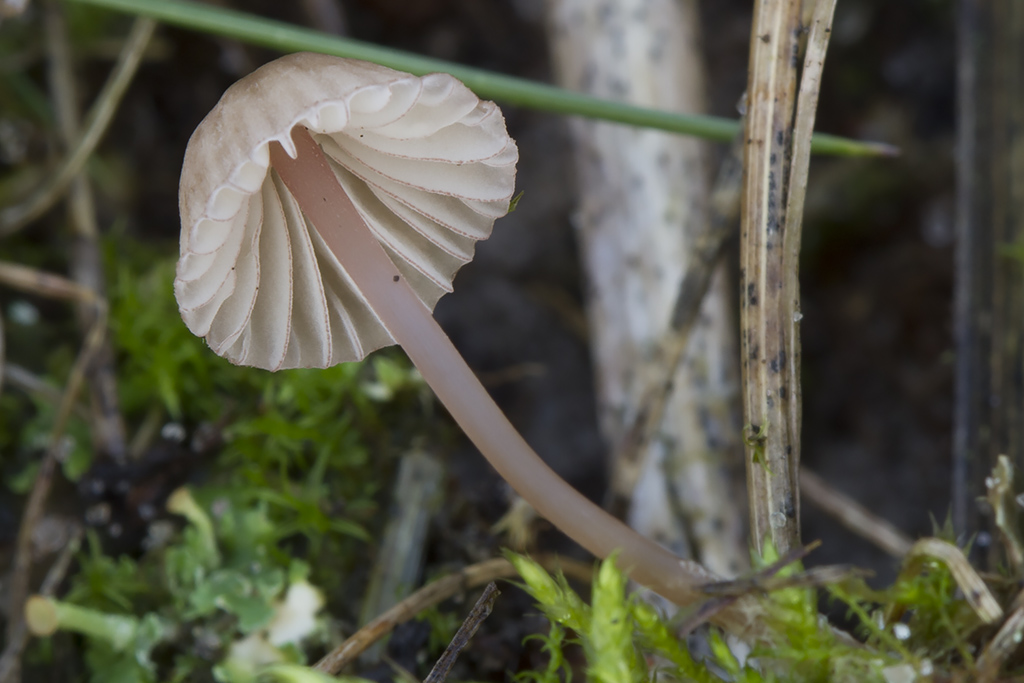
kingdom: Fungi
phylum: Basidiomycota
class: Agaricomycetes
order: Agaricales
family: Mycenaceae
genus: Mycena
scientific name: Mycena olivaceomarginata
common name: brunægget huesvamp
